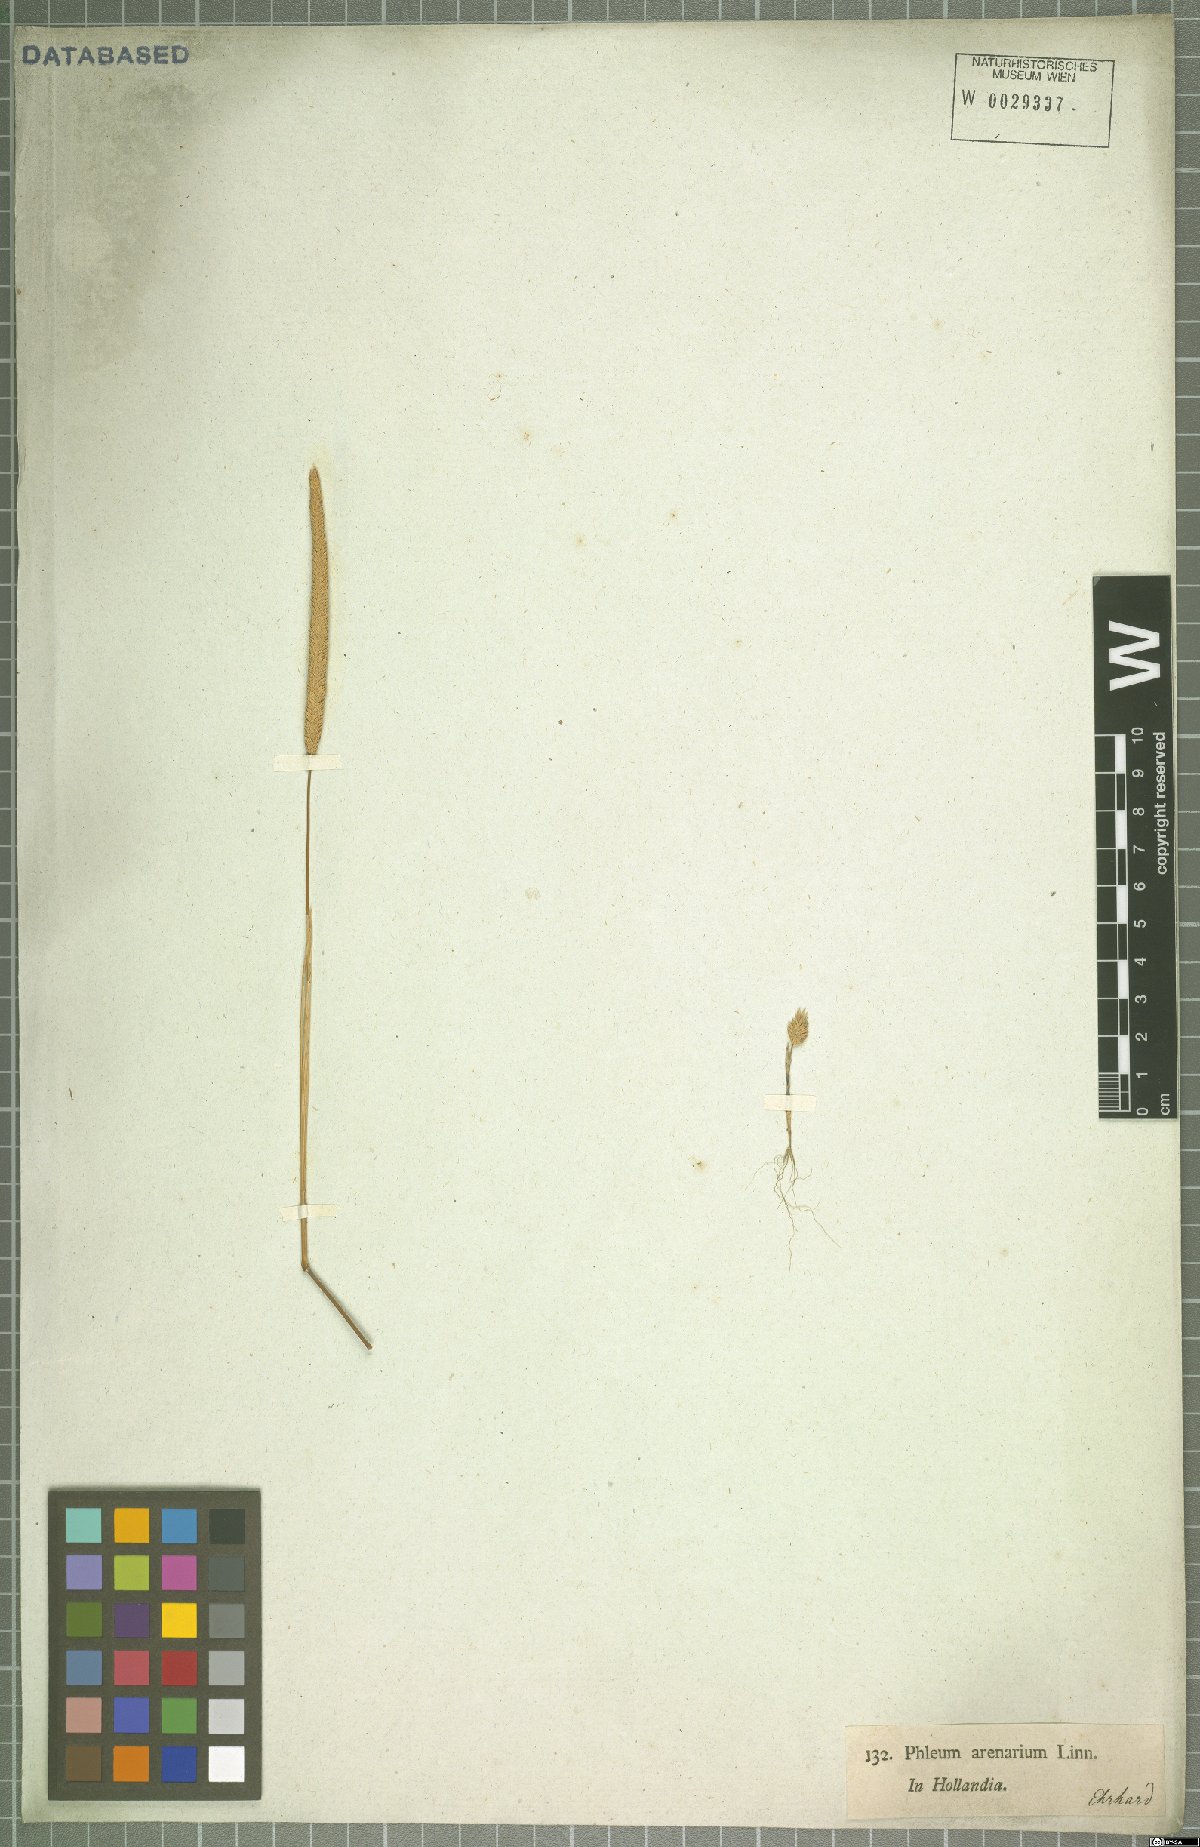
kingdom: Plantae
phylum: Tracheophyta
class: Liliopsida
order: Poales
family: Poaceae
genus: Phleum
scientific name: Phleum arenarium
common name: Sand cat's-tail
